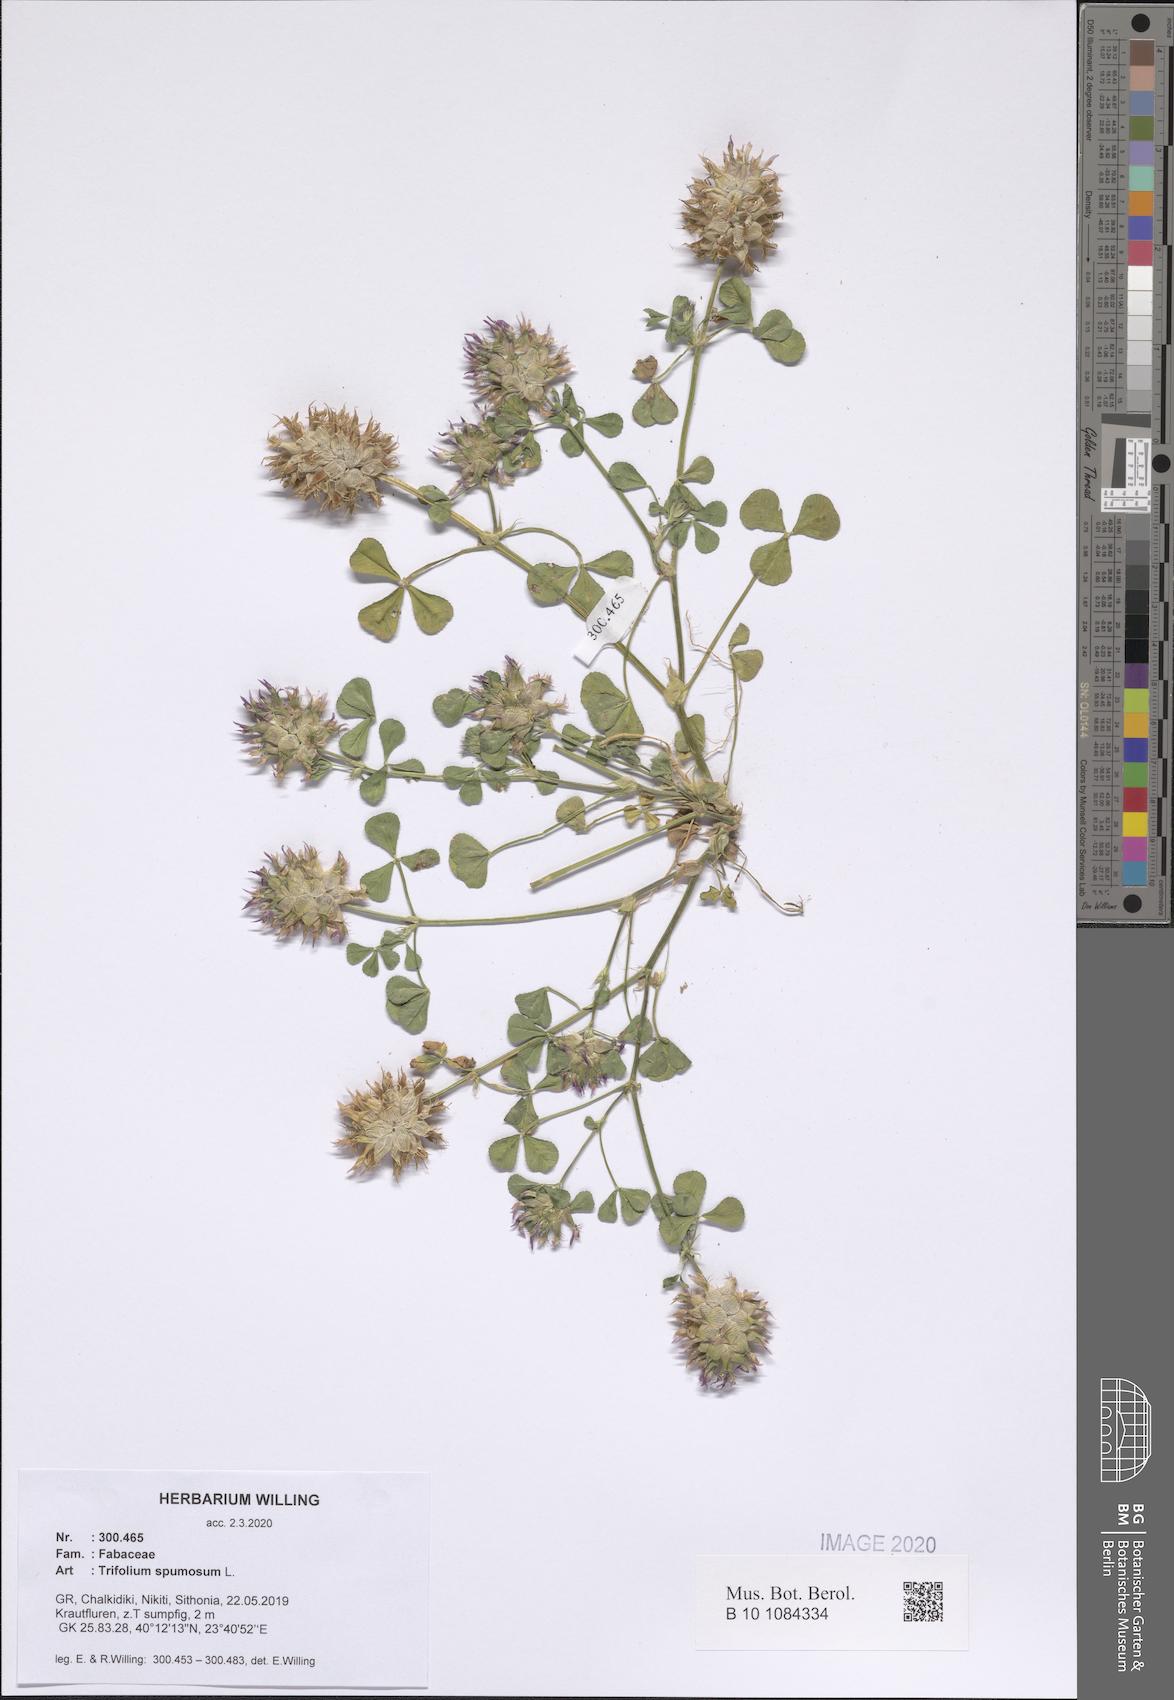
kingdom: Plantae
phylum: Tracheophyta
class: Magnoliopsida
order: Fabales
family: Fabaceae
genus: Trifolium
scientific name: Trifolium spumosum
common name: Mediterranean clover
